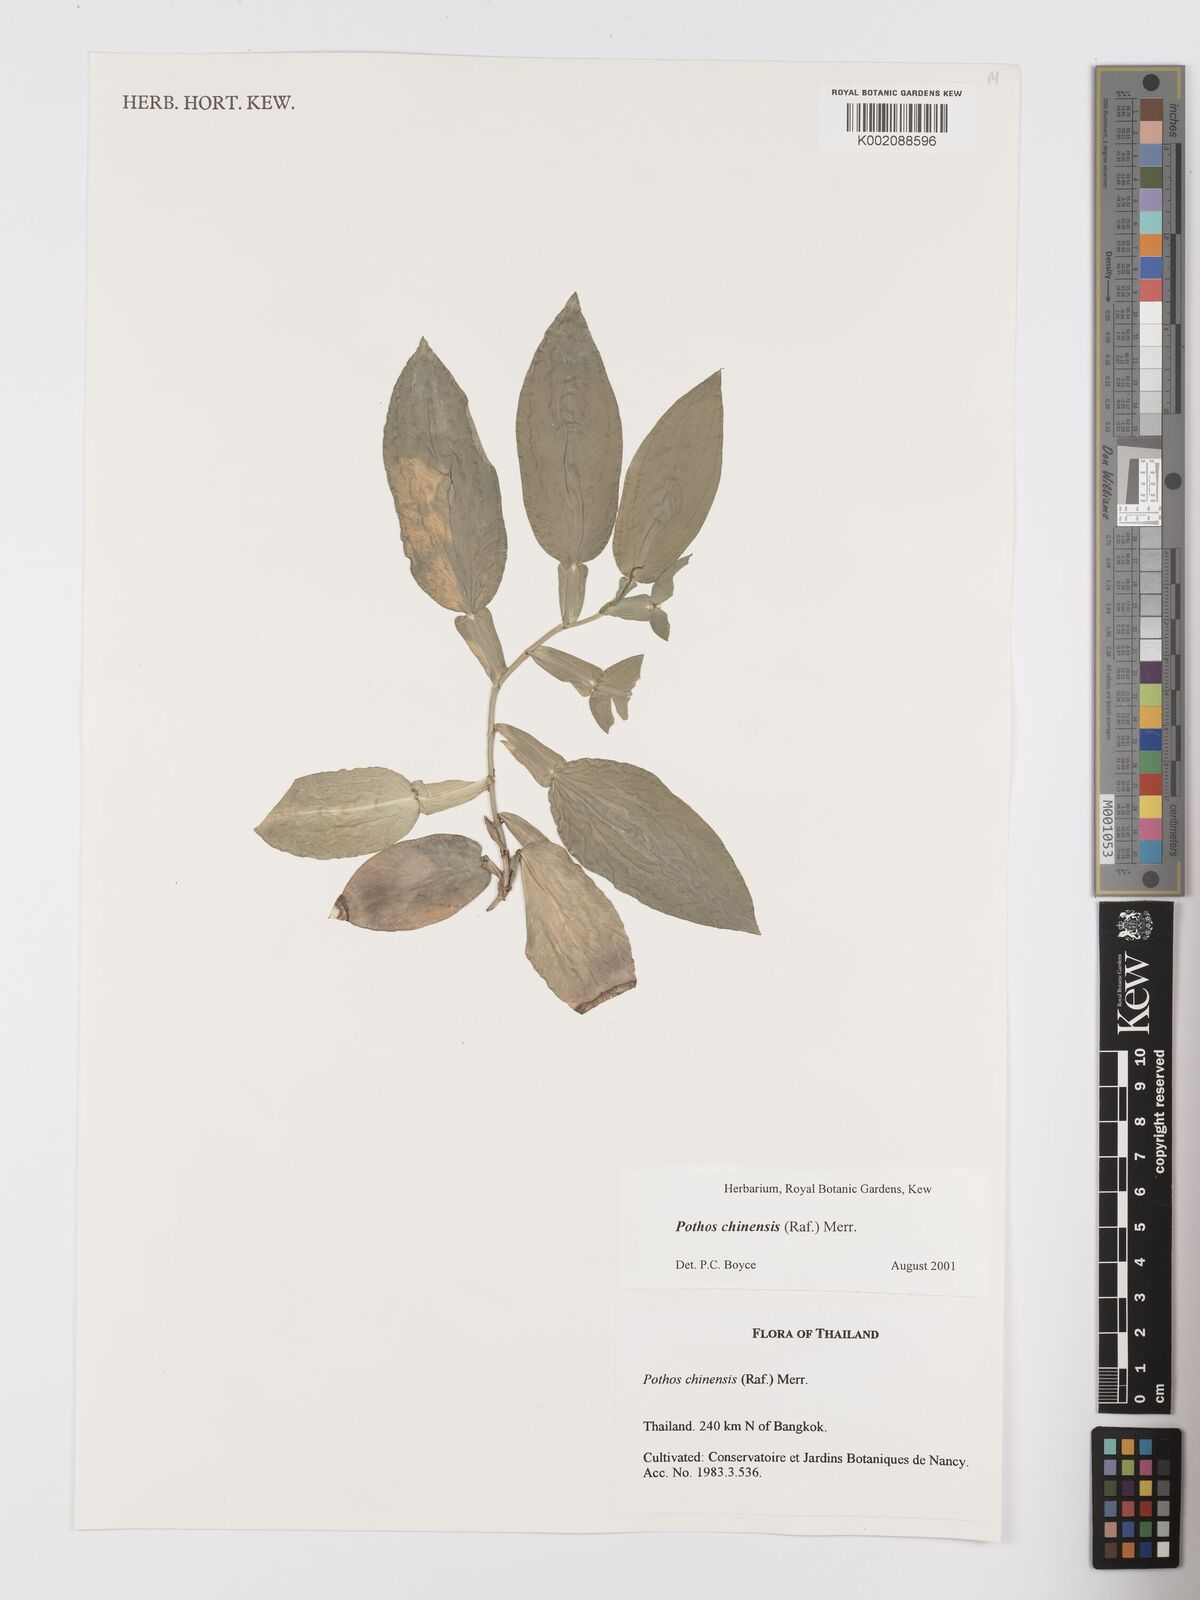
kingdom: Plantae
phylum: Tracheophyta
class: Liliopsida
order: Alismatales
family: Araceae
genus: Pothos
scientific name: Pothos chinensis
